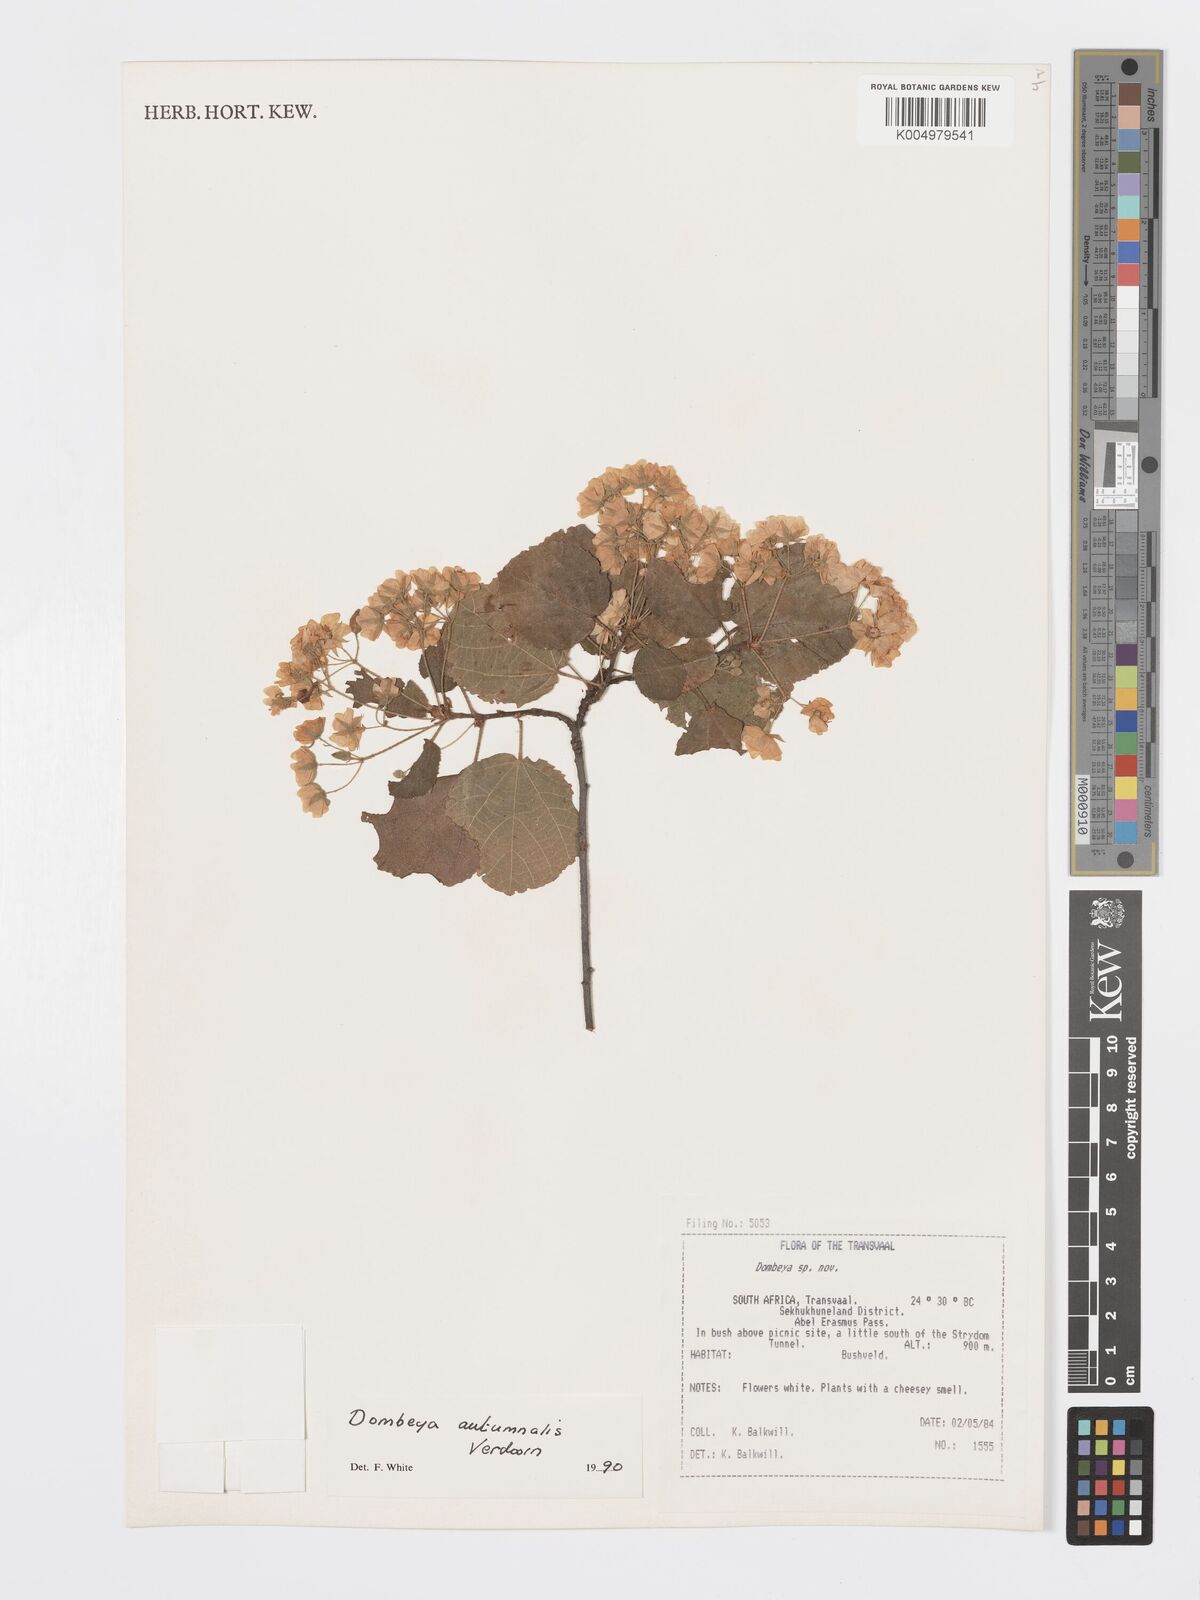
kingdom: Plantae
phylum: Tracheophyta
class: Magnoliopsida
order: Malvales
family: Malvaceae
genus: Dombeya
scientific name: Dombeya autumnalis
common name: Rock dombeya
